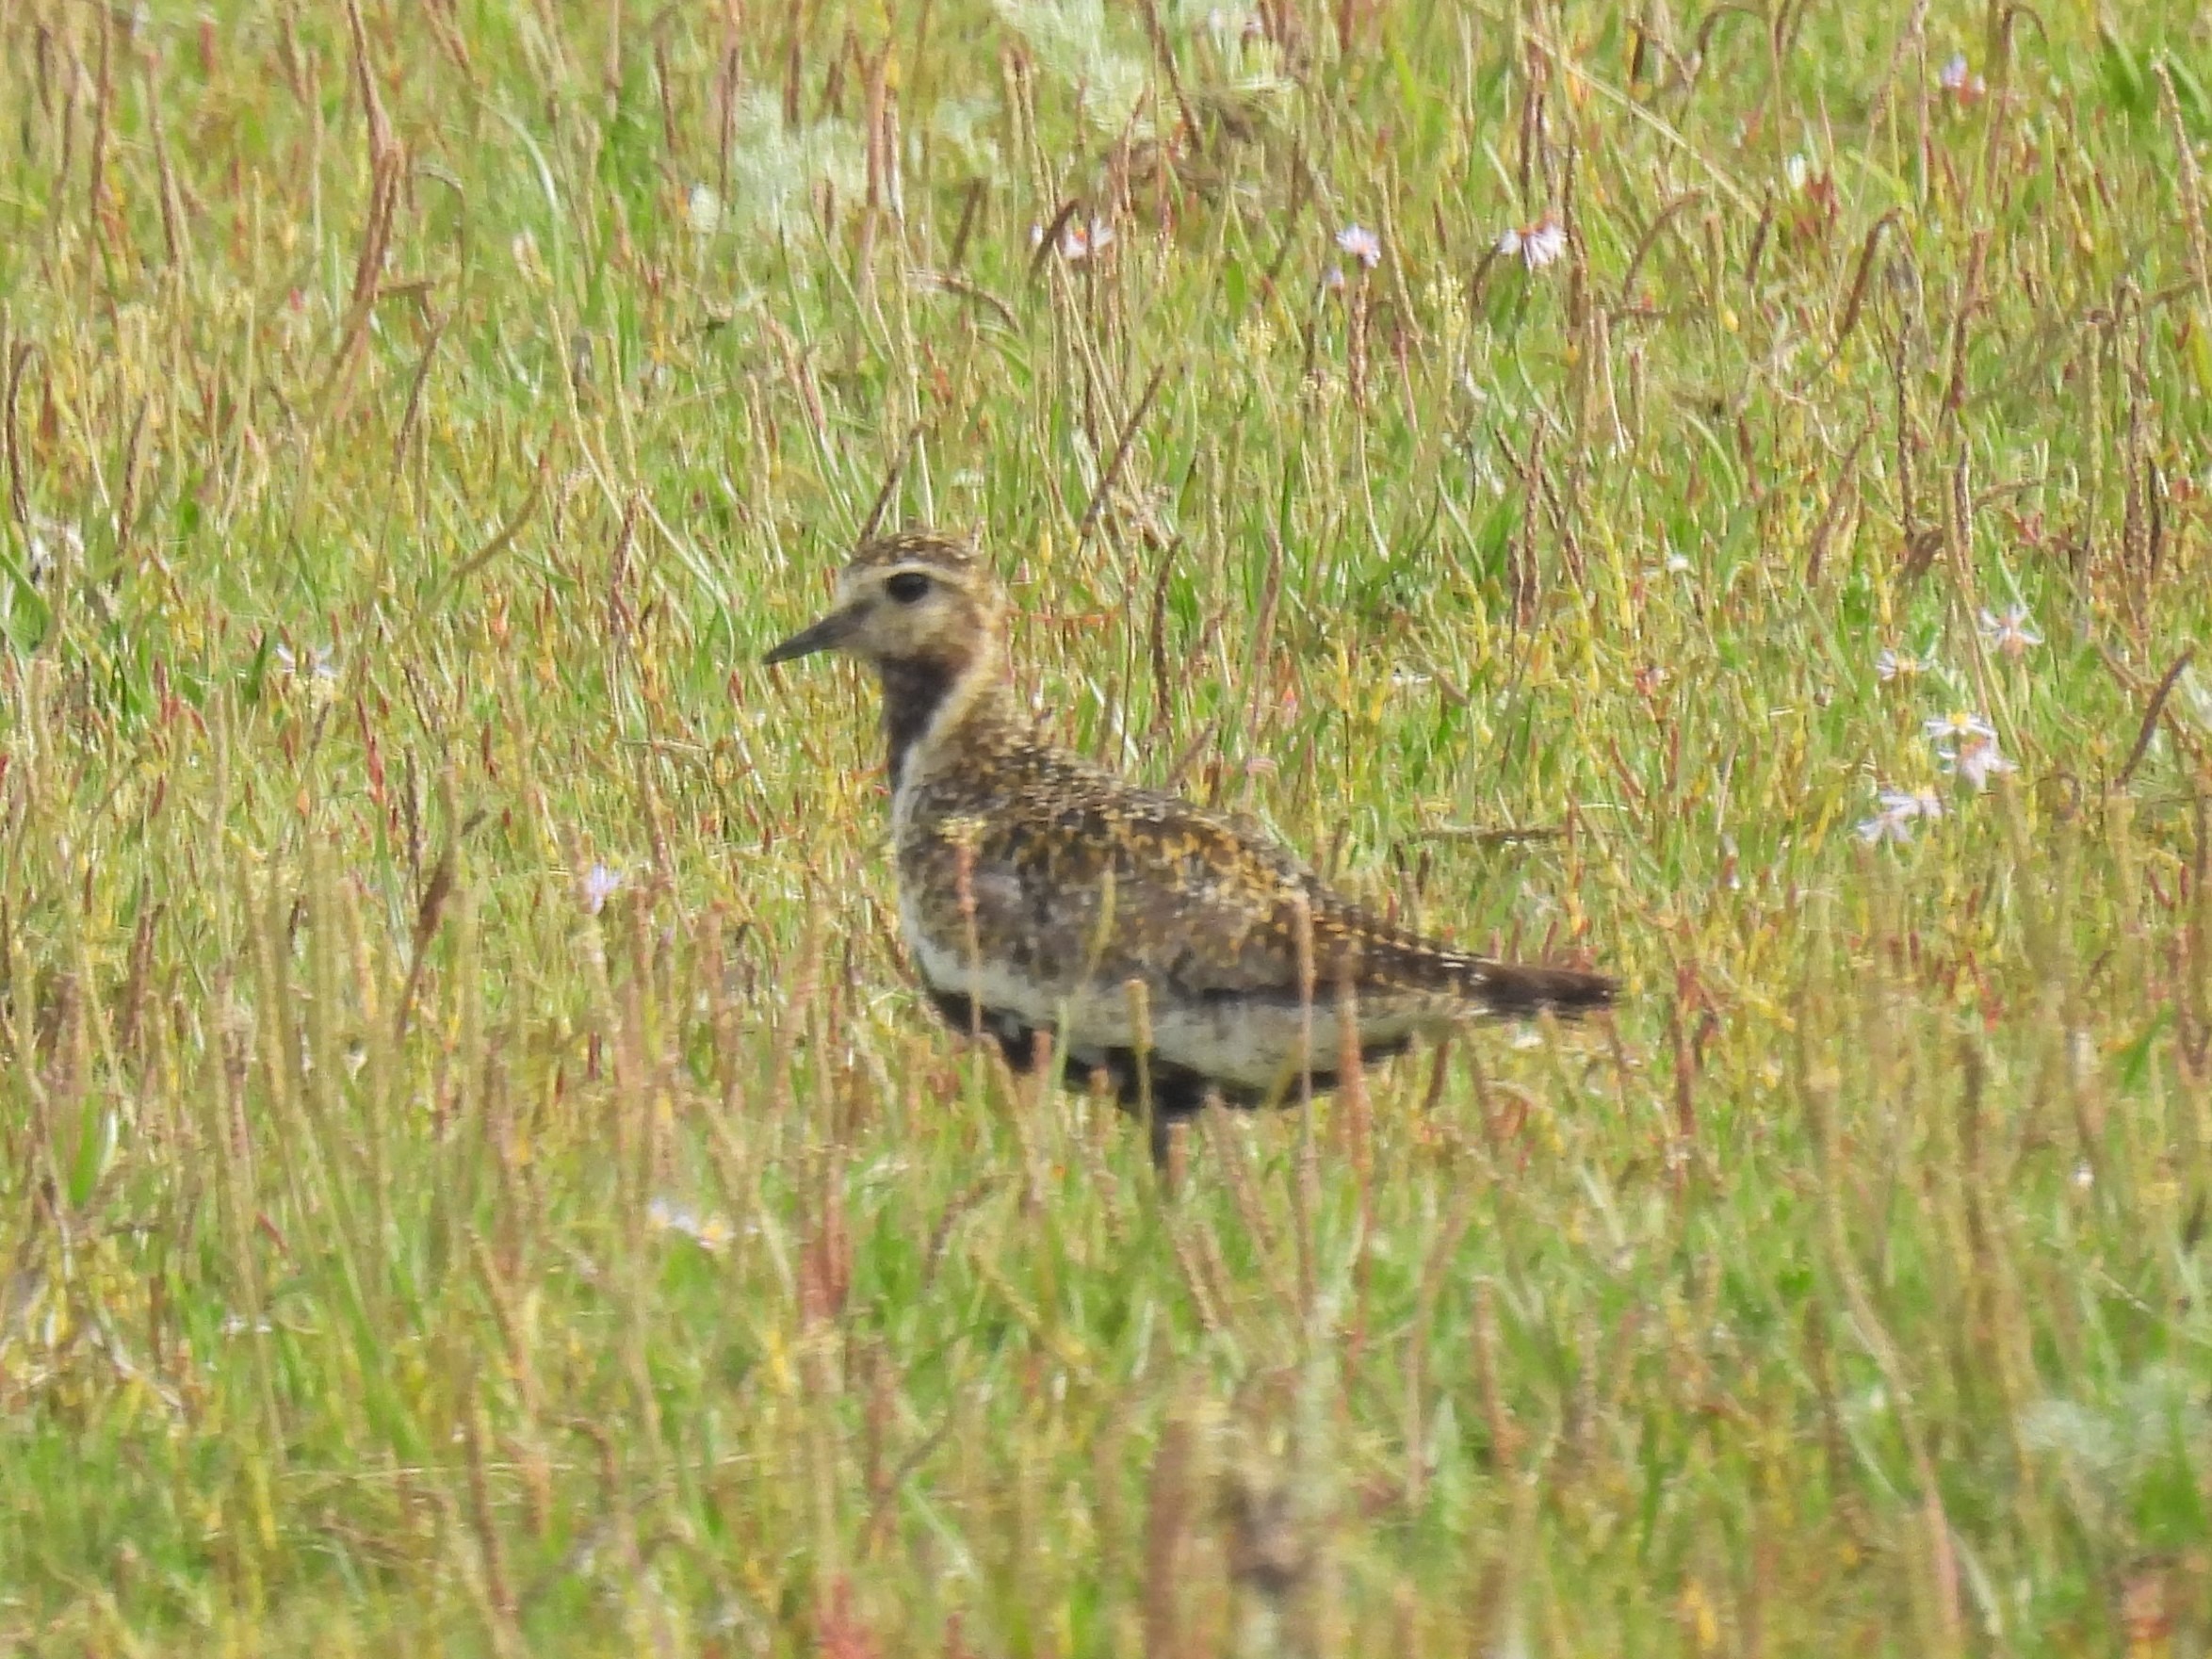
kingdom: Animalia
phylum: Chordata
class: Aves
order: Charadriiformes
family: Charadriidae
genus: Pluvialis
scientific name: Pluvialis apricaria
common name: Hjejle
